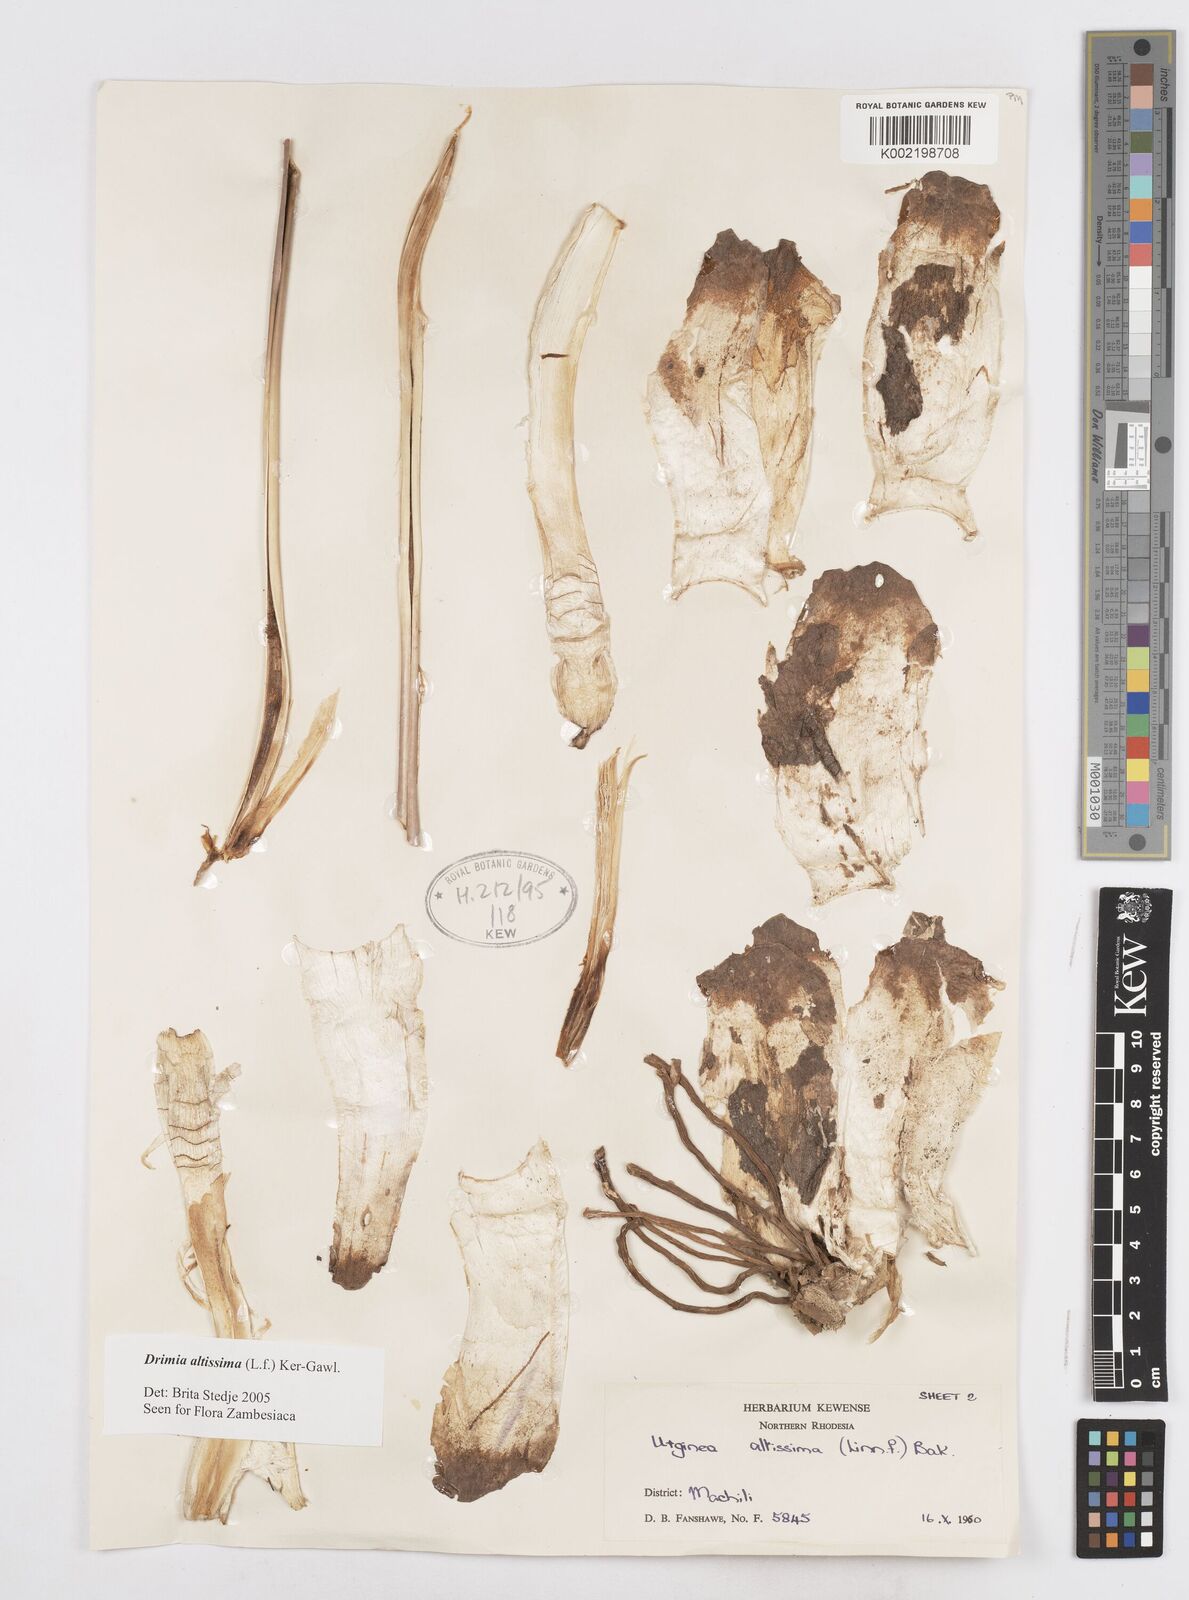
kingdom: Plantae
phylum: Tracheophyta
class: Liliopsida
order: Asparagales
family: Asparagaceae
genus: Drimia
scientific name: Drimia
